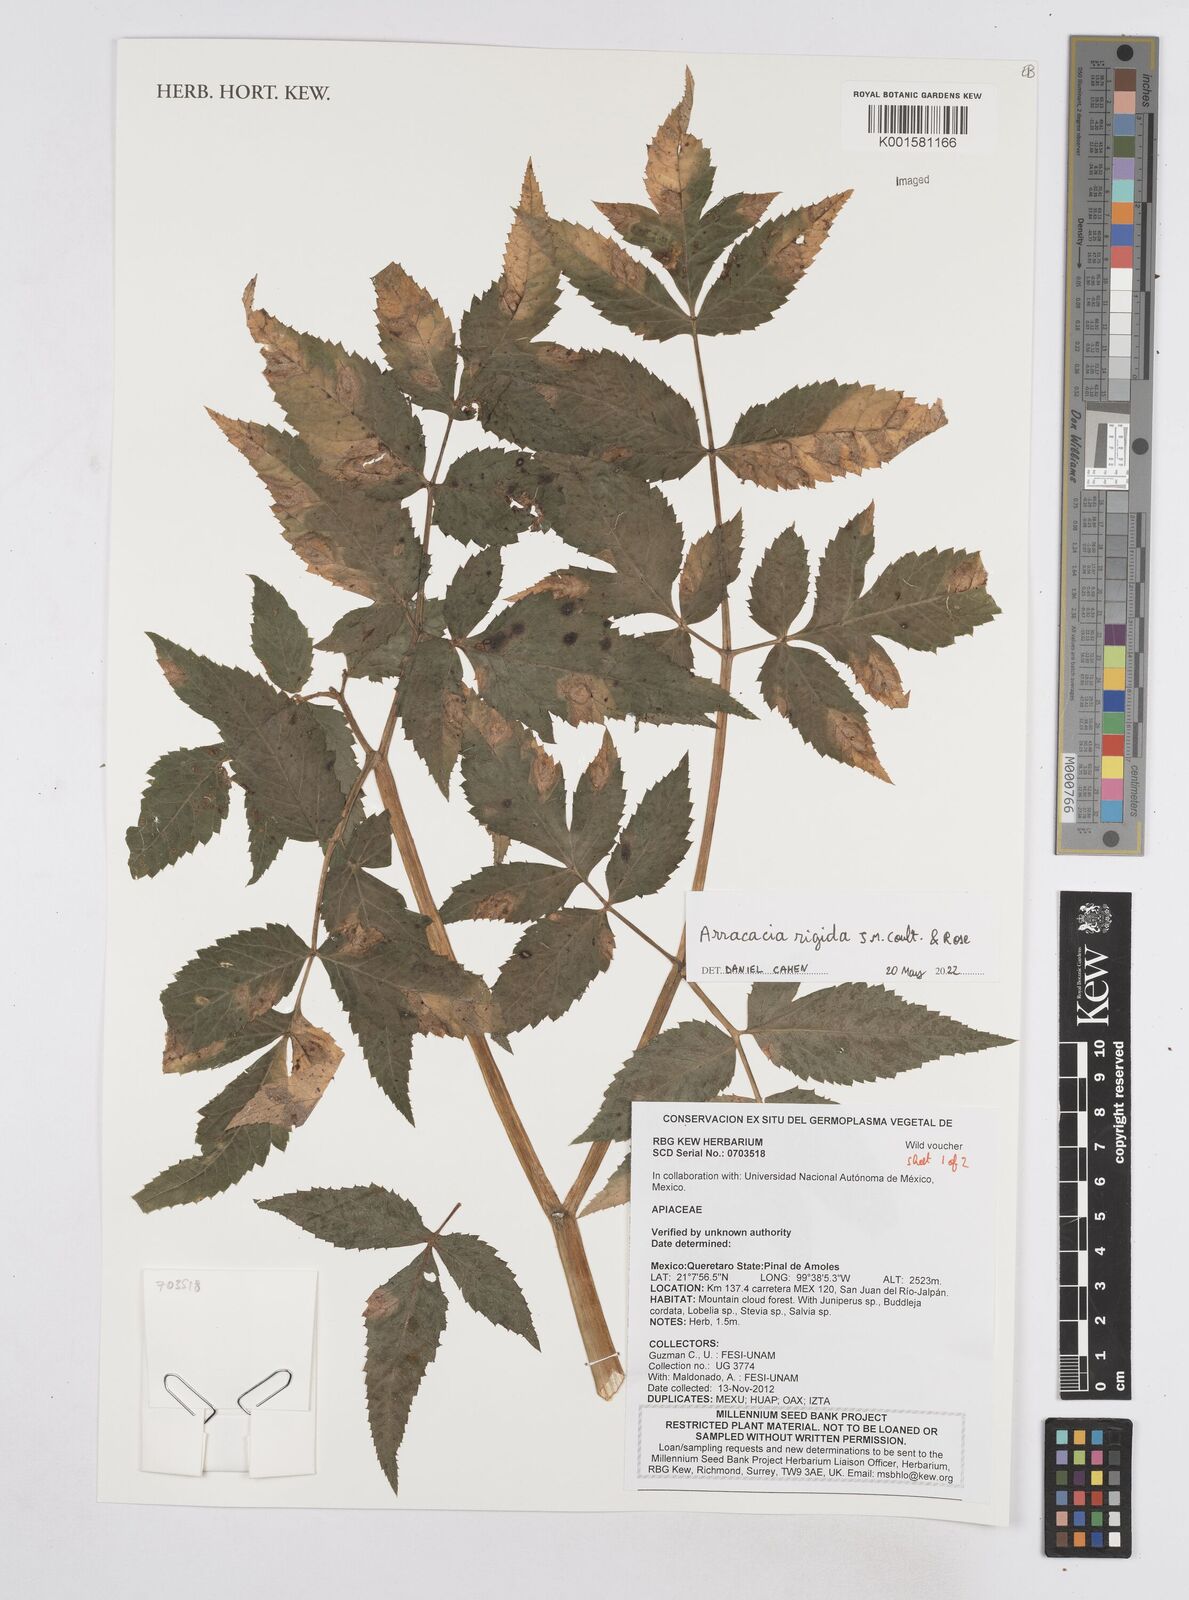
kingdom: Plantae
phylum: Tracheophyta
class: Magnoliopsida
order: Apiales
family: Apiaceae
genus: Arracacia
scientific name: Arracacia rigida
